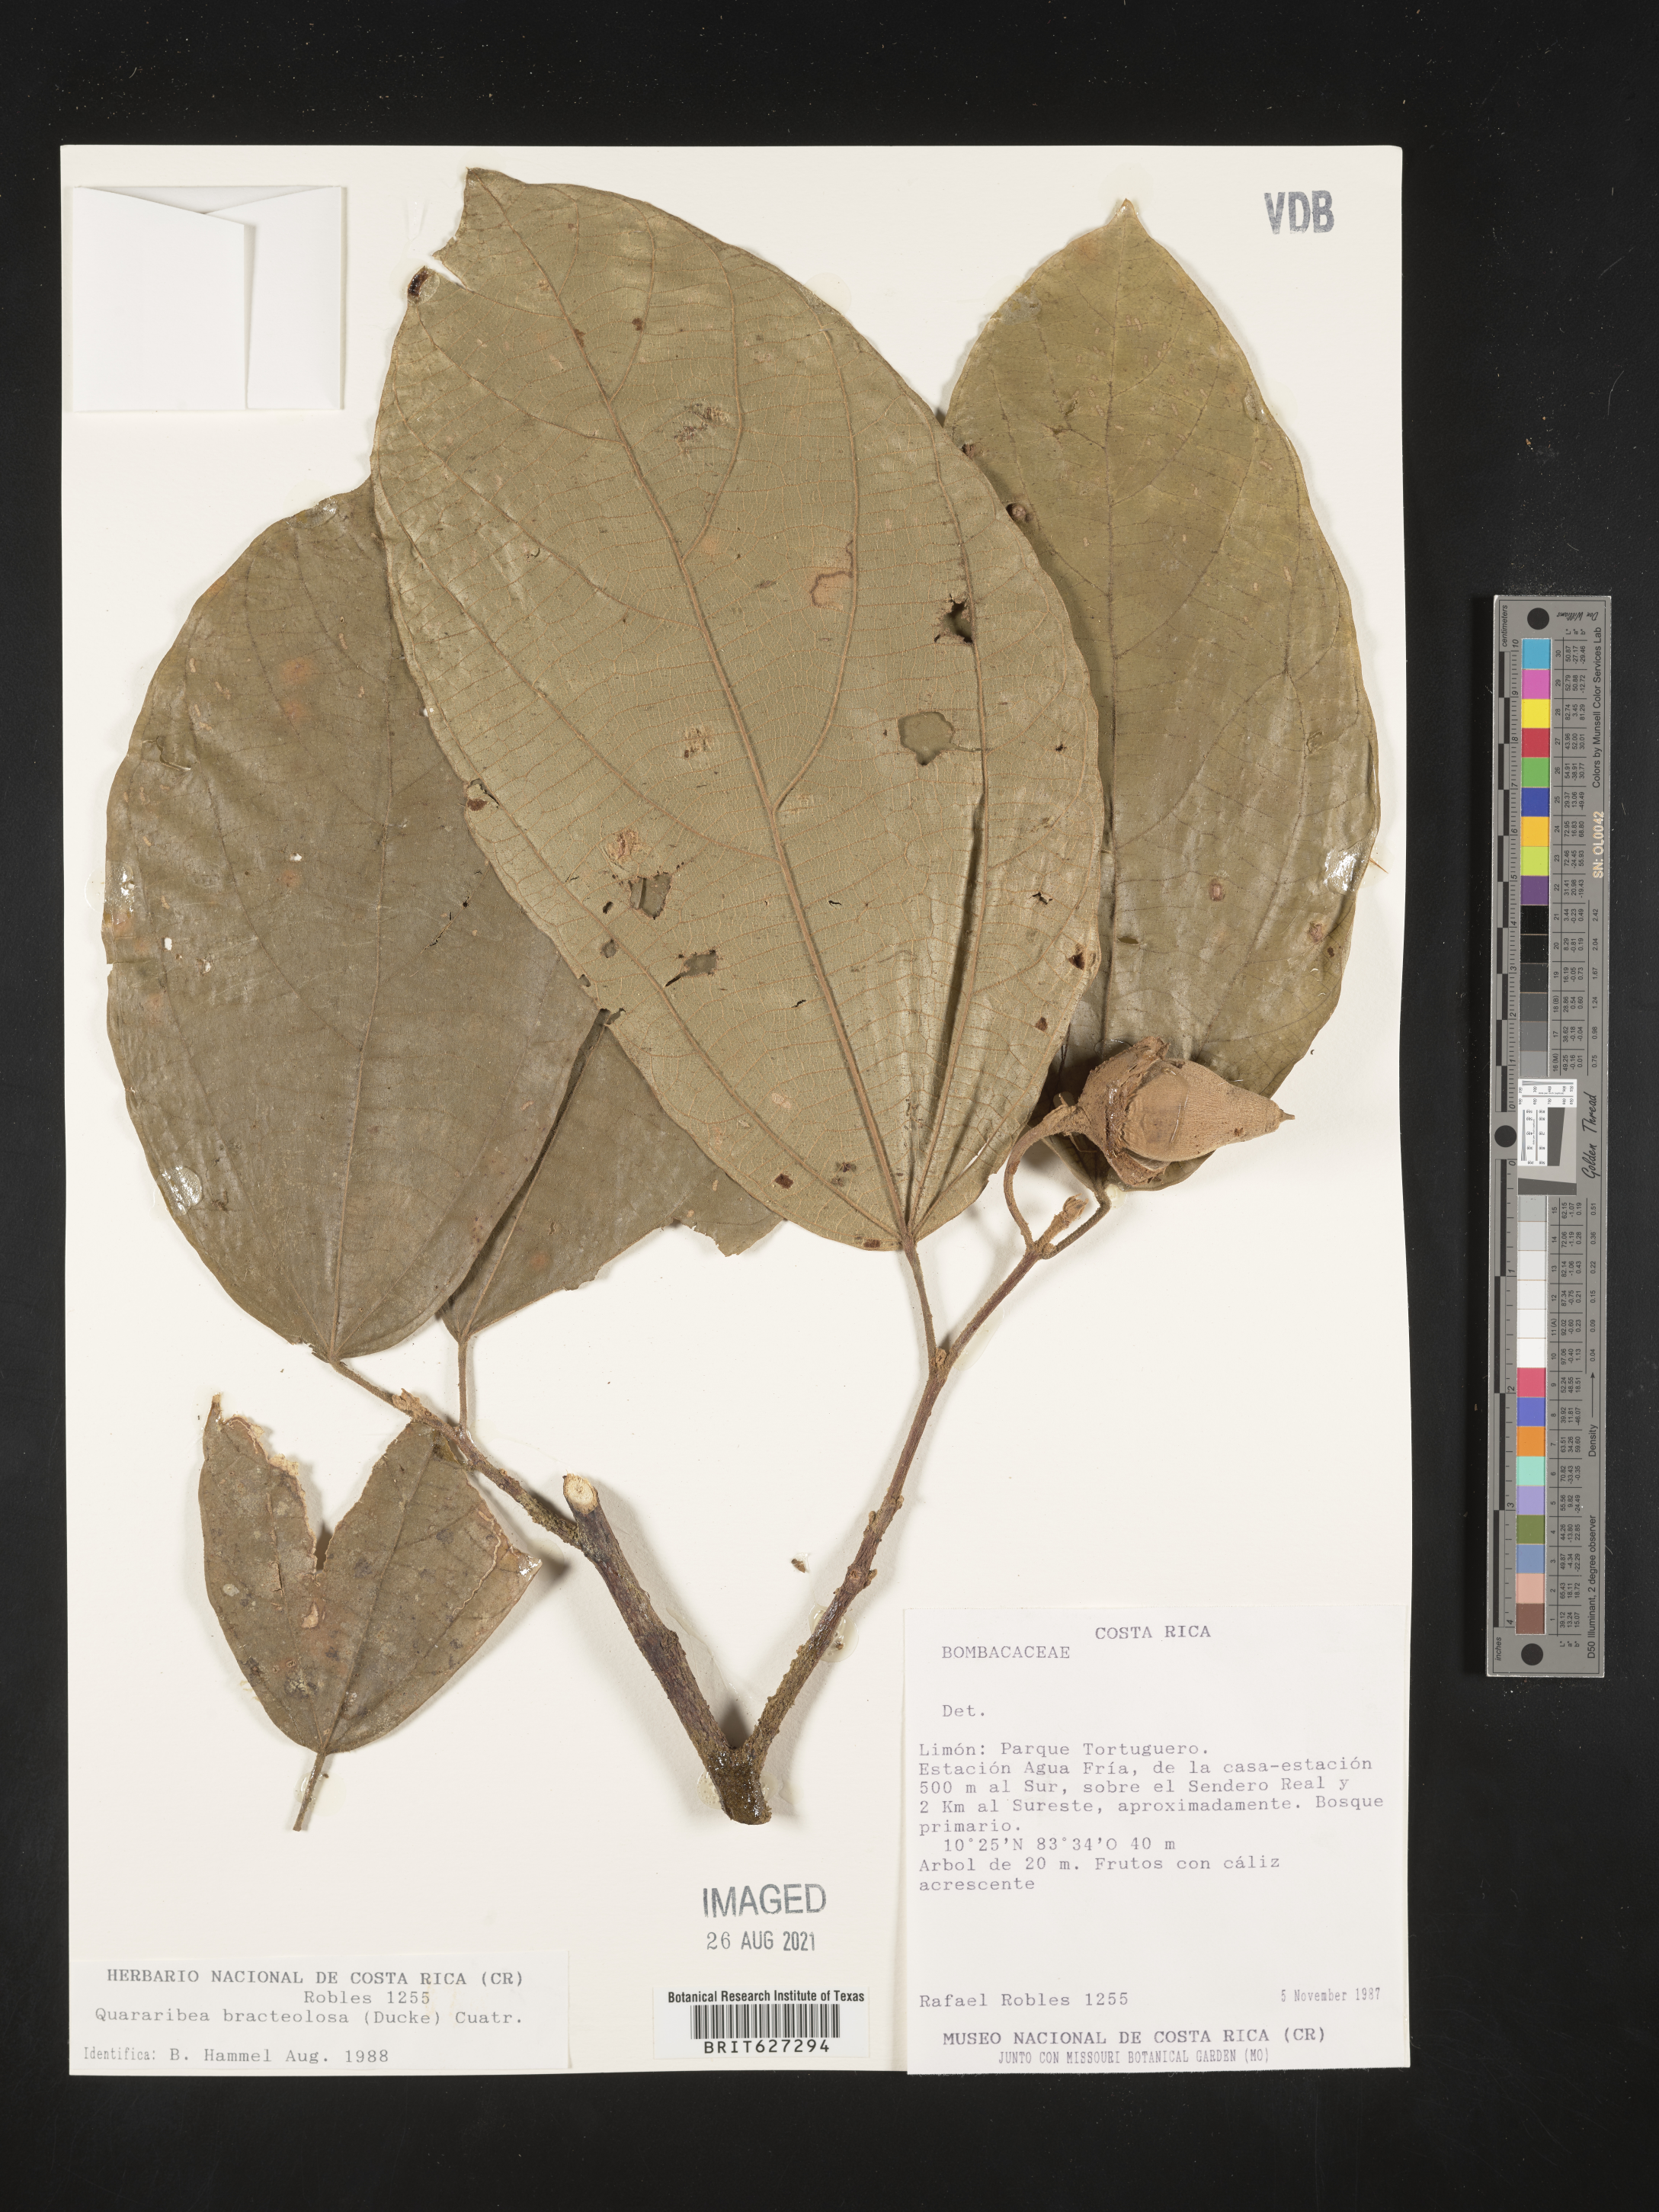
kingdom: Plantae
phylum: Tracheophyta
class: Magnoliopsida
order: Malvales
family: Malvaceae
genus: Quararibea
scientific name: Quararibea
